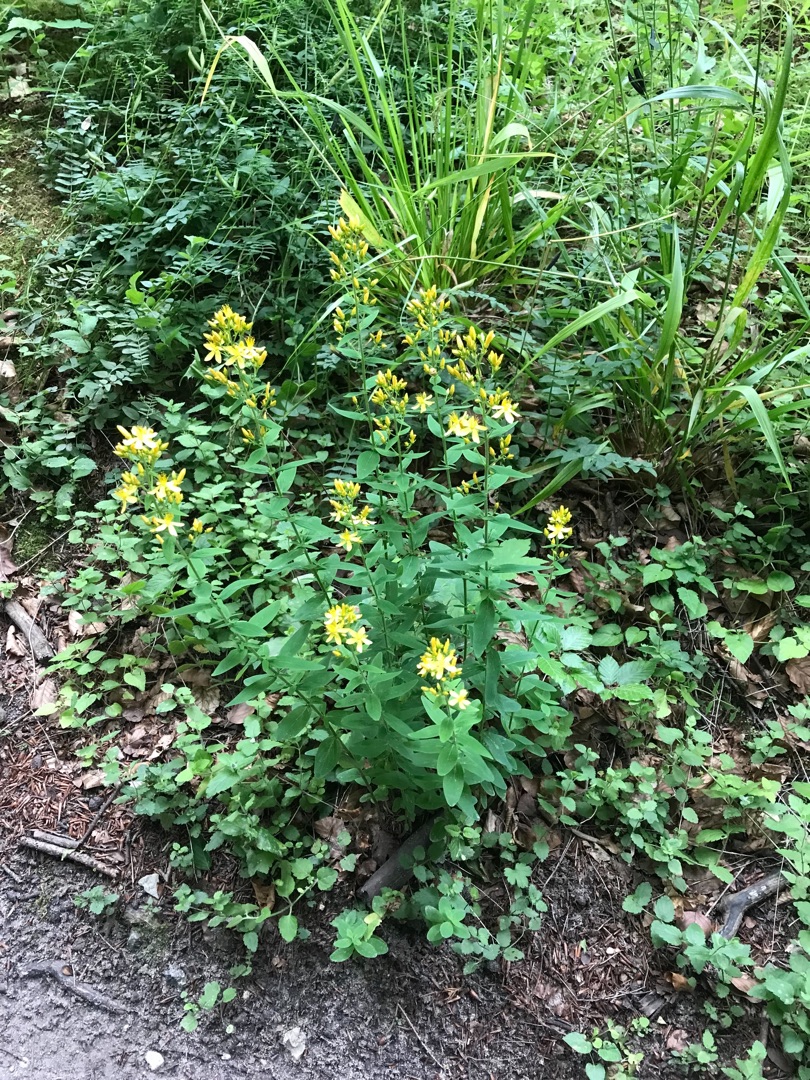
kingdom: Plantae
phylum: Tracheophyta
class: Magnoliopsida
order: Malpighiales
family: Hypericaceae
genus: Hypericum
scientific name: Hypericum hirsutum
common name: Lådden perikon
